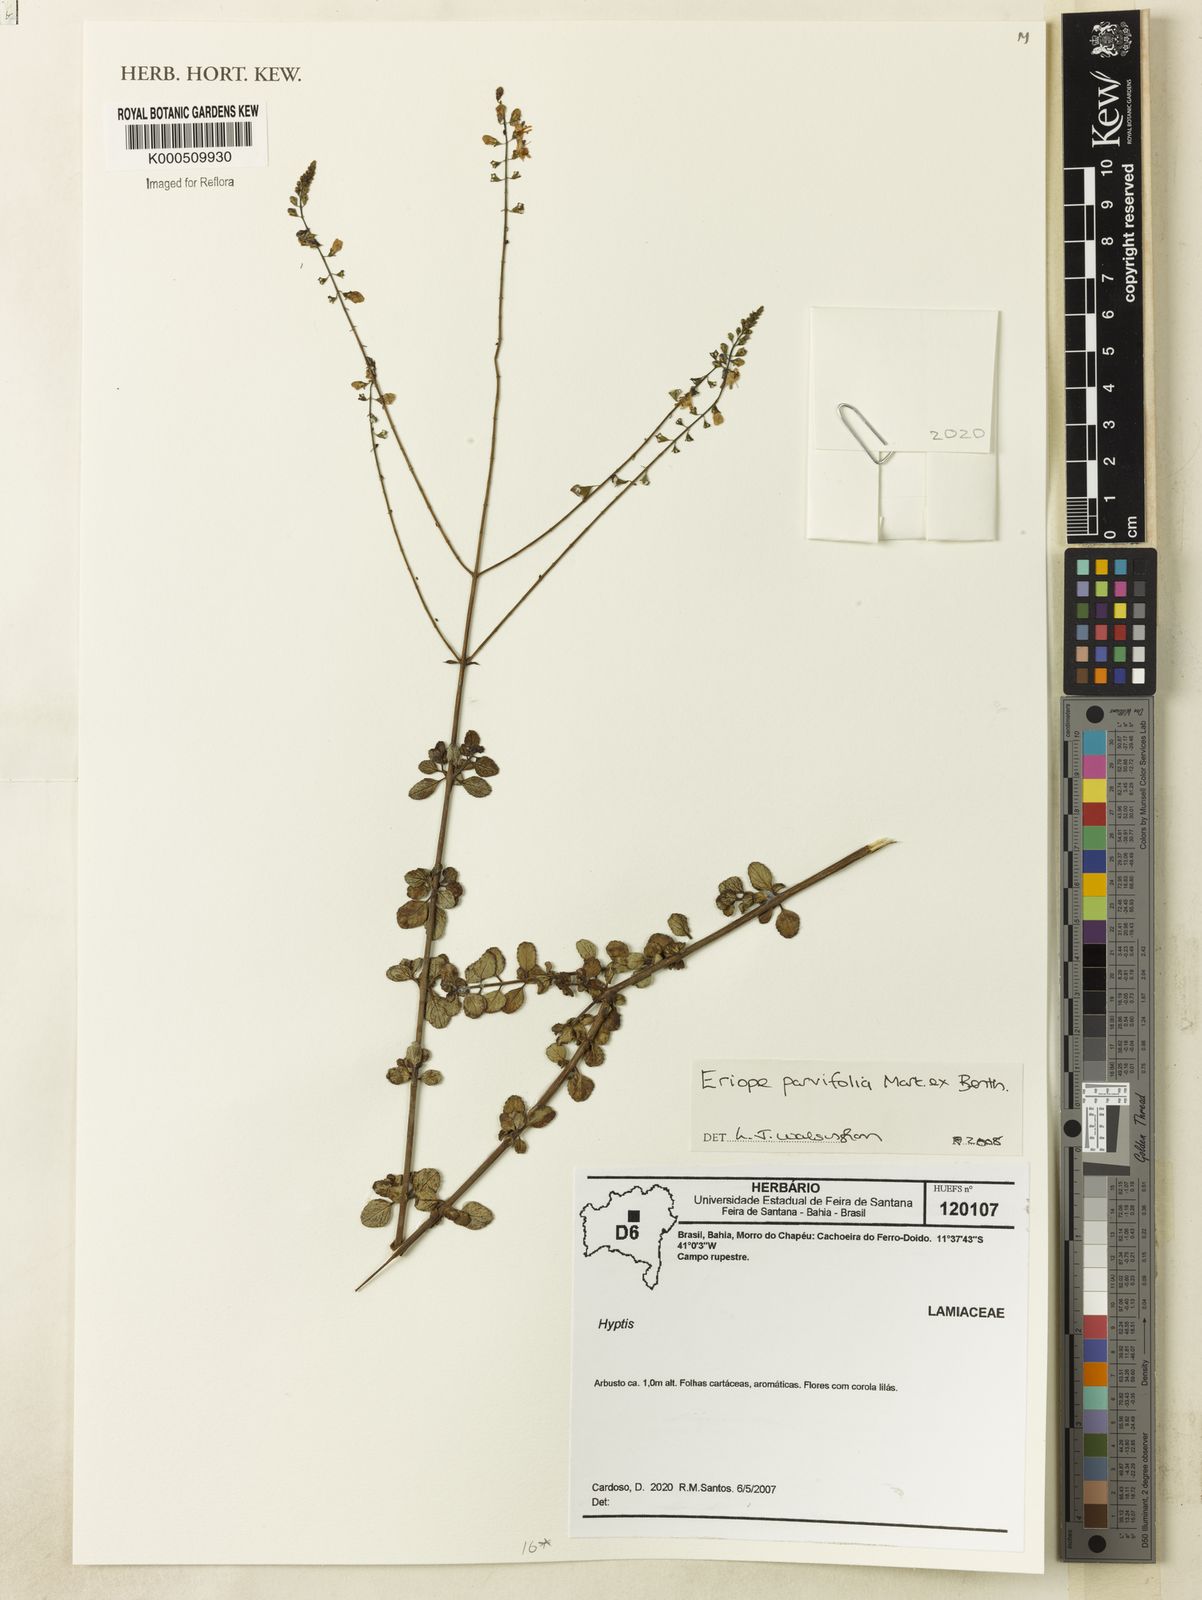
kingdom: Plantae
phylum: Tracheophyta
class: Magnoliopsida
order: Lamiales
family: Lamiaceae
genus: Eriope
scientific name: Eriope parvifolia
